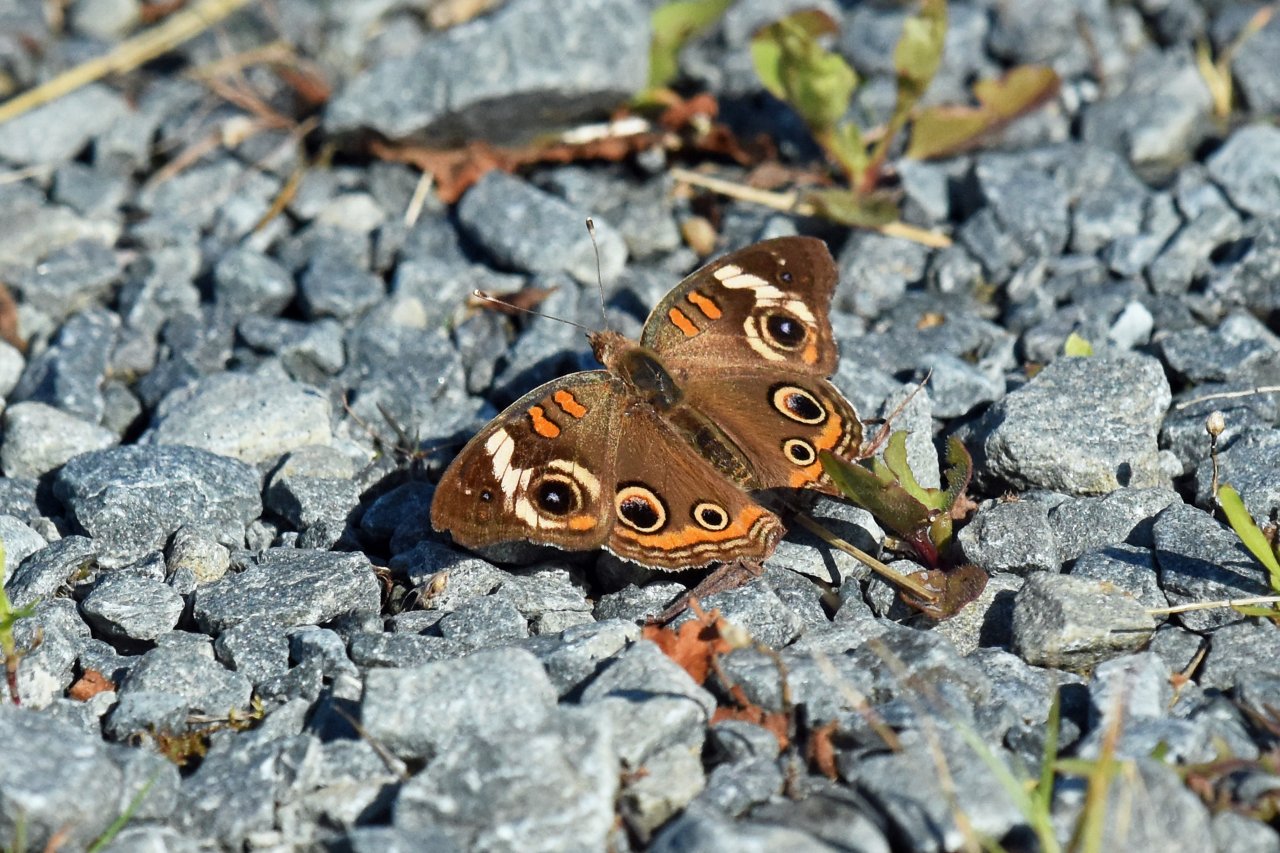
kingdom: Animalia
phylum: Arthropoda
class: Insecta
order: Lepidoptera
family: Nymphalidae
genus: Junonia
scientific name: Junonia coenia
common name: Common Buckeye
